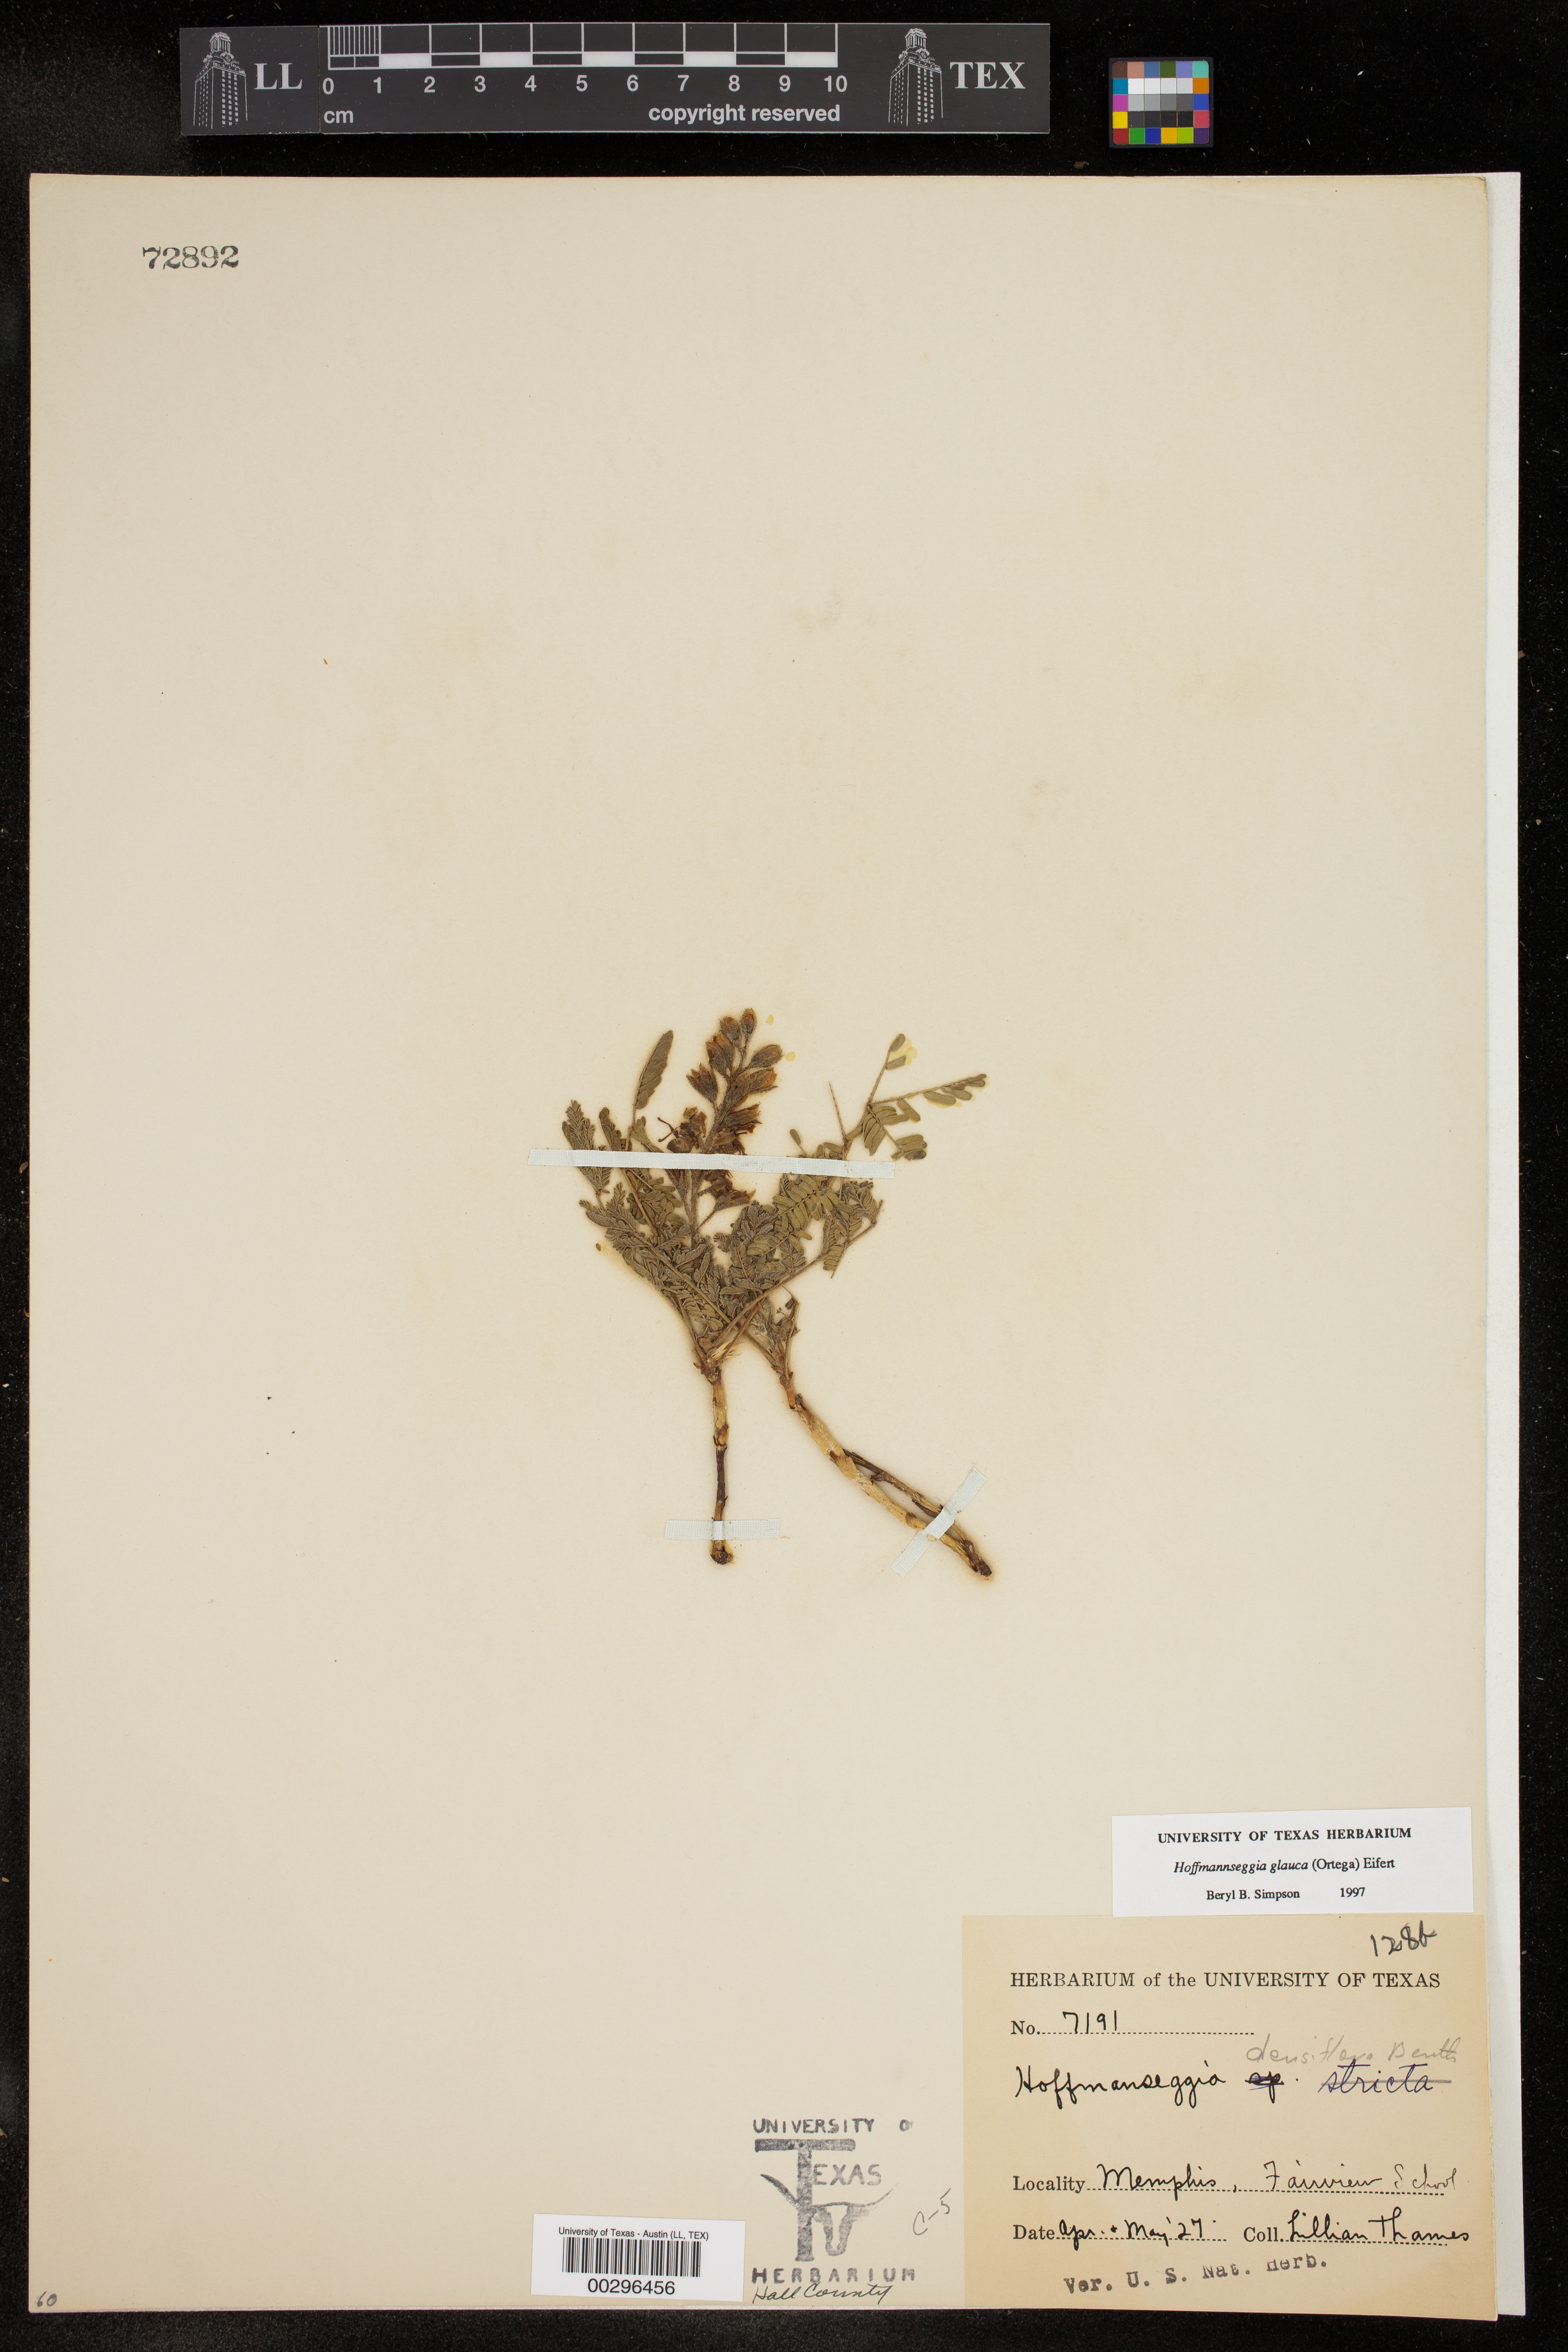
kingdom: Plantae
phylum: Tracheophyta
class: Magnoliopsida
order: Fabales
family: Fabaceae
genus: Hoffmannseggia
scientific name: Hoffmannseggia glauca
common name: Pignut
